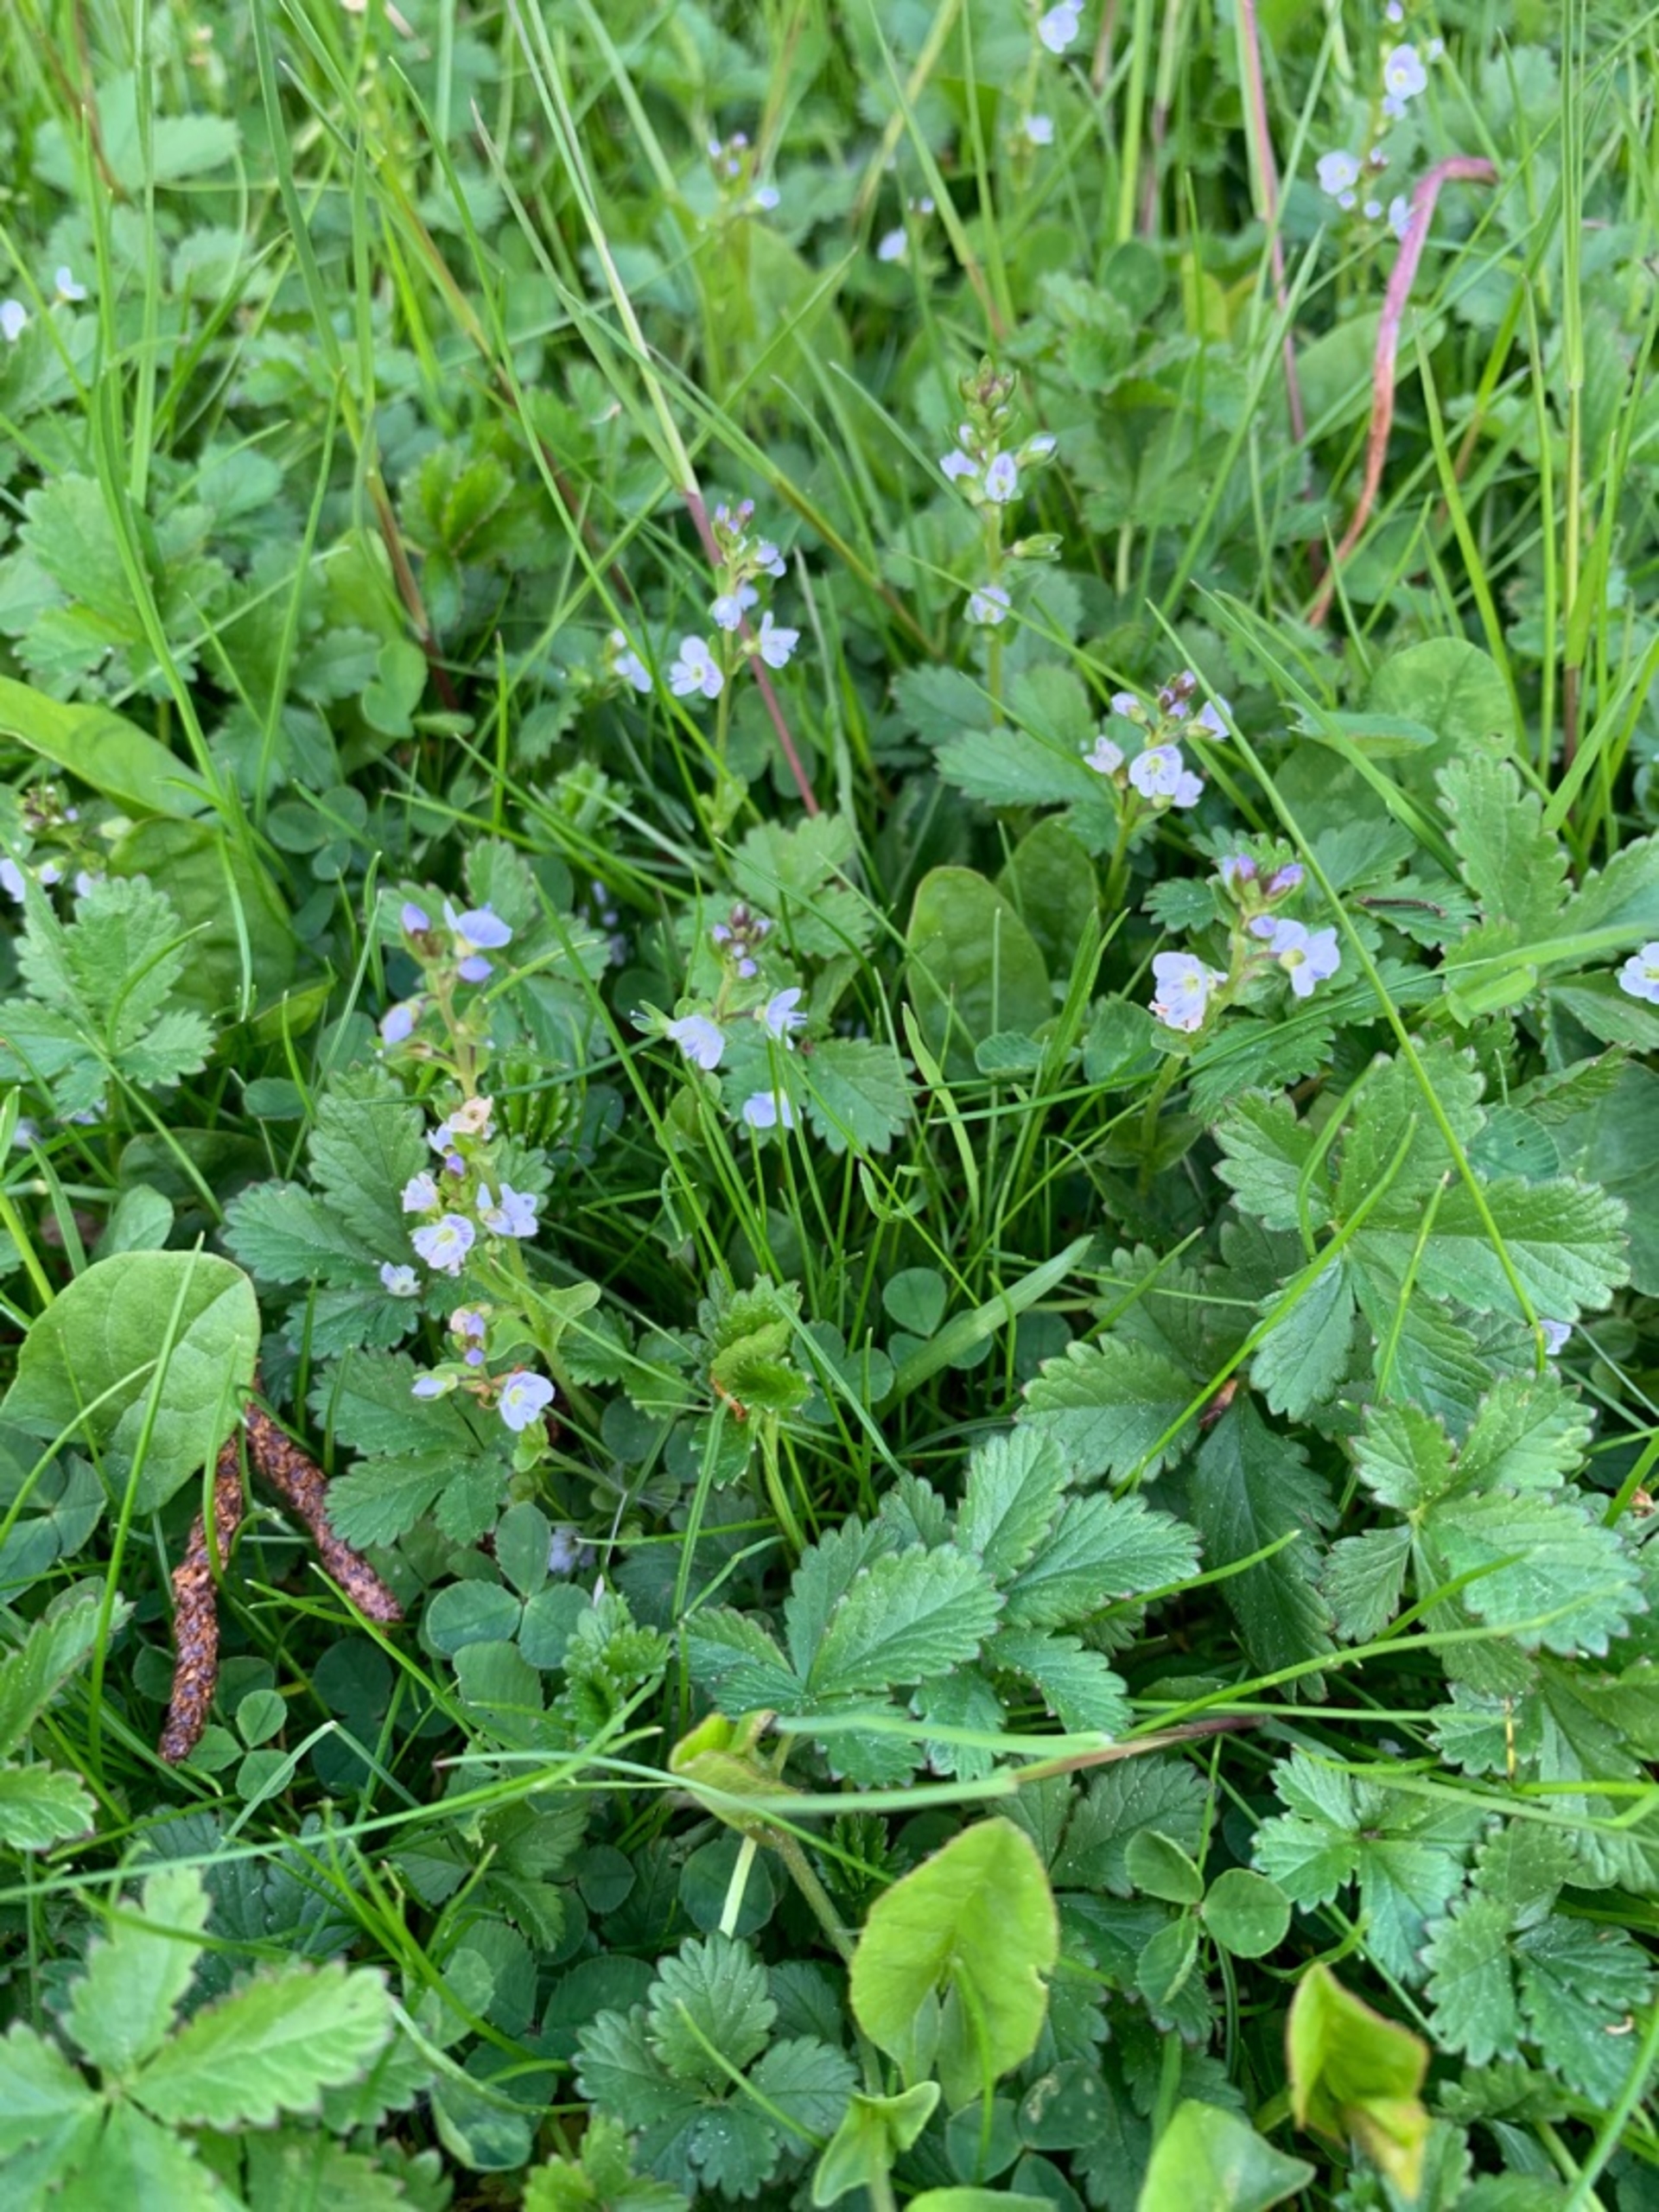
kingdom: Plantae
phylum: Tracheophyta
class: Magnoliopsida
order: Lamiales
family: Plantaginaceae
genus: Veronica
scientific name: Veronica serpyllifolia
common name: Glat ærenpris
